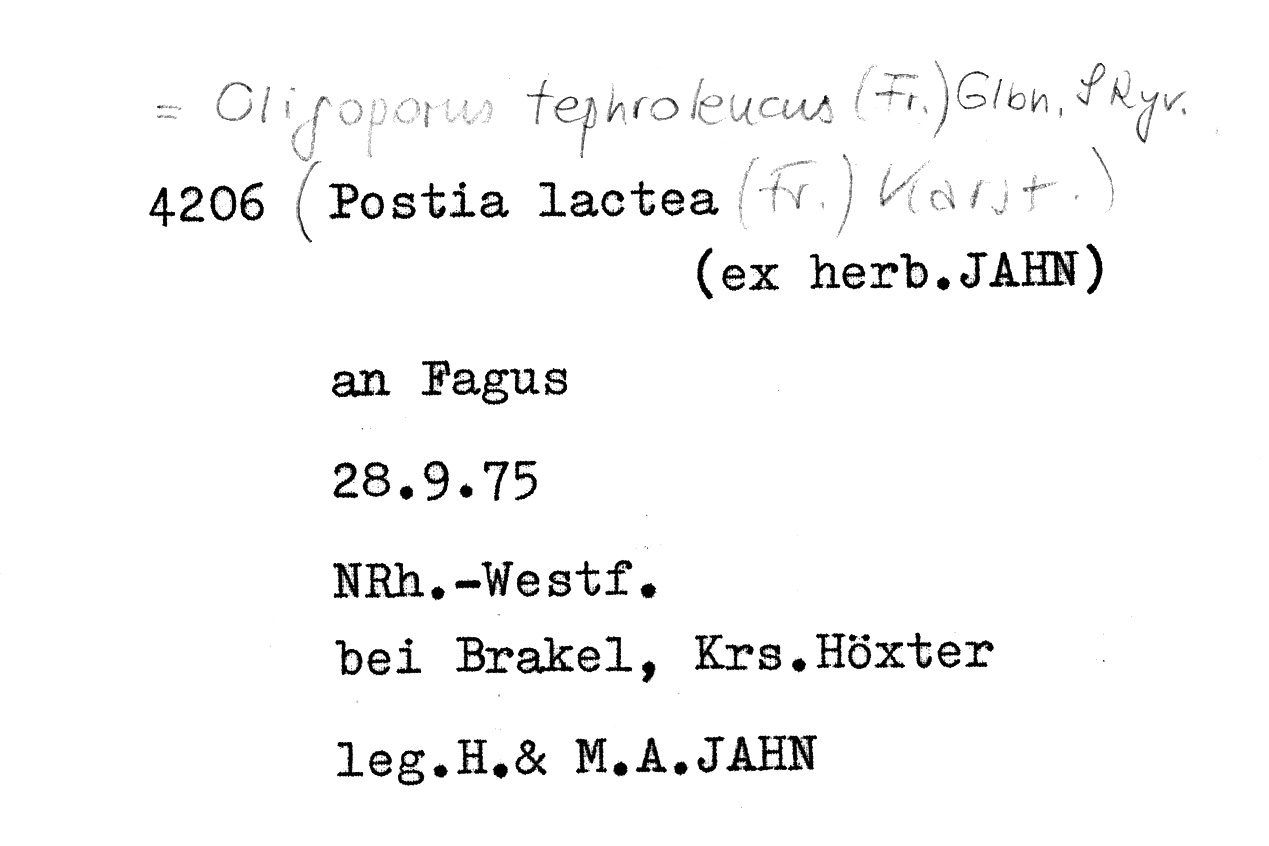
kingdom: Fungi
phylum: Basidiomycota
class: Agaricomycetes
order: Polyporales
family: Incrustoporiaceae
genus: Tyromyces
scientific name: Tyromyces lacteus
